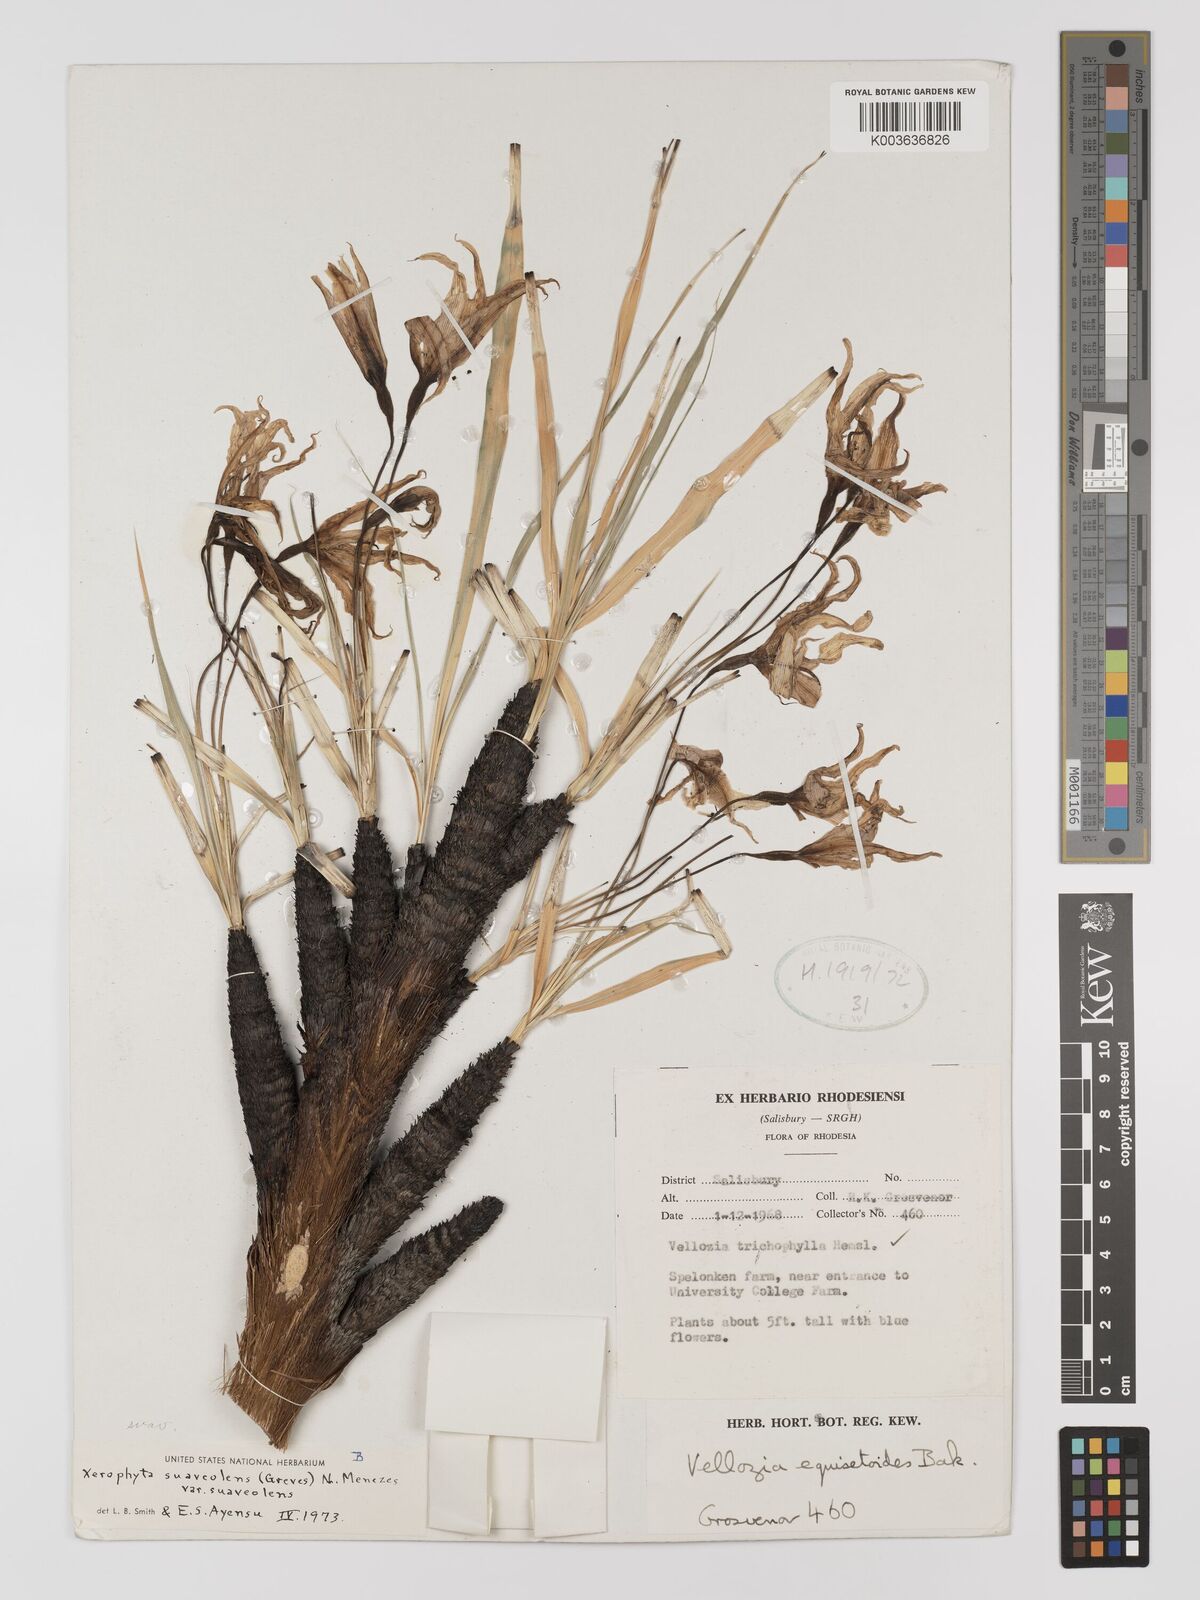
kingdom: Plantae
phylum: Tracheophyta
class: Liliopsida
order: Pandanales
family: Velloziaceae
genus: Xerophyta
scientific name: Xerophyta suaveolens
